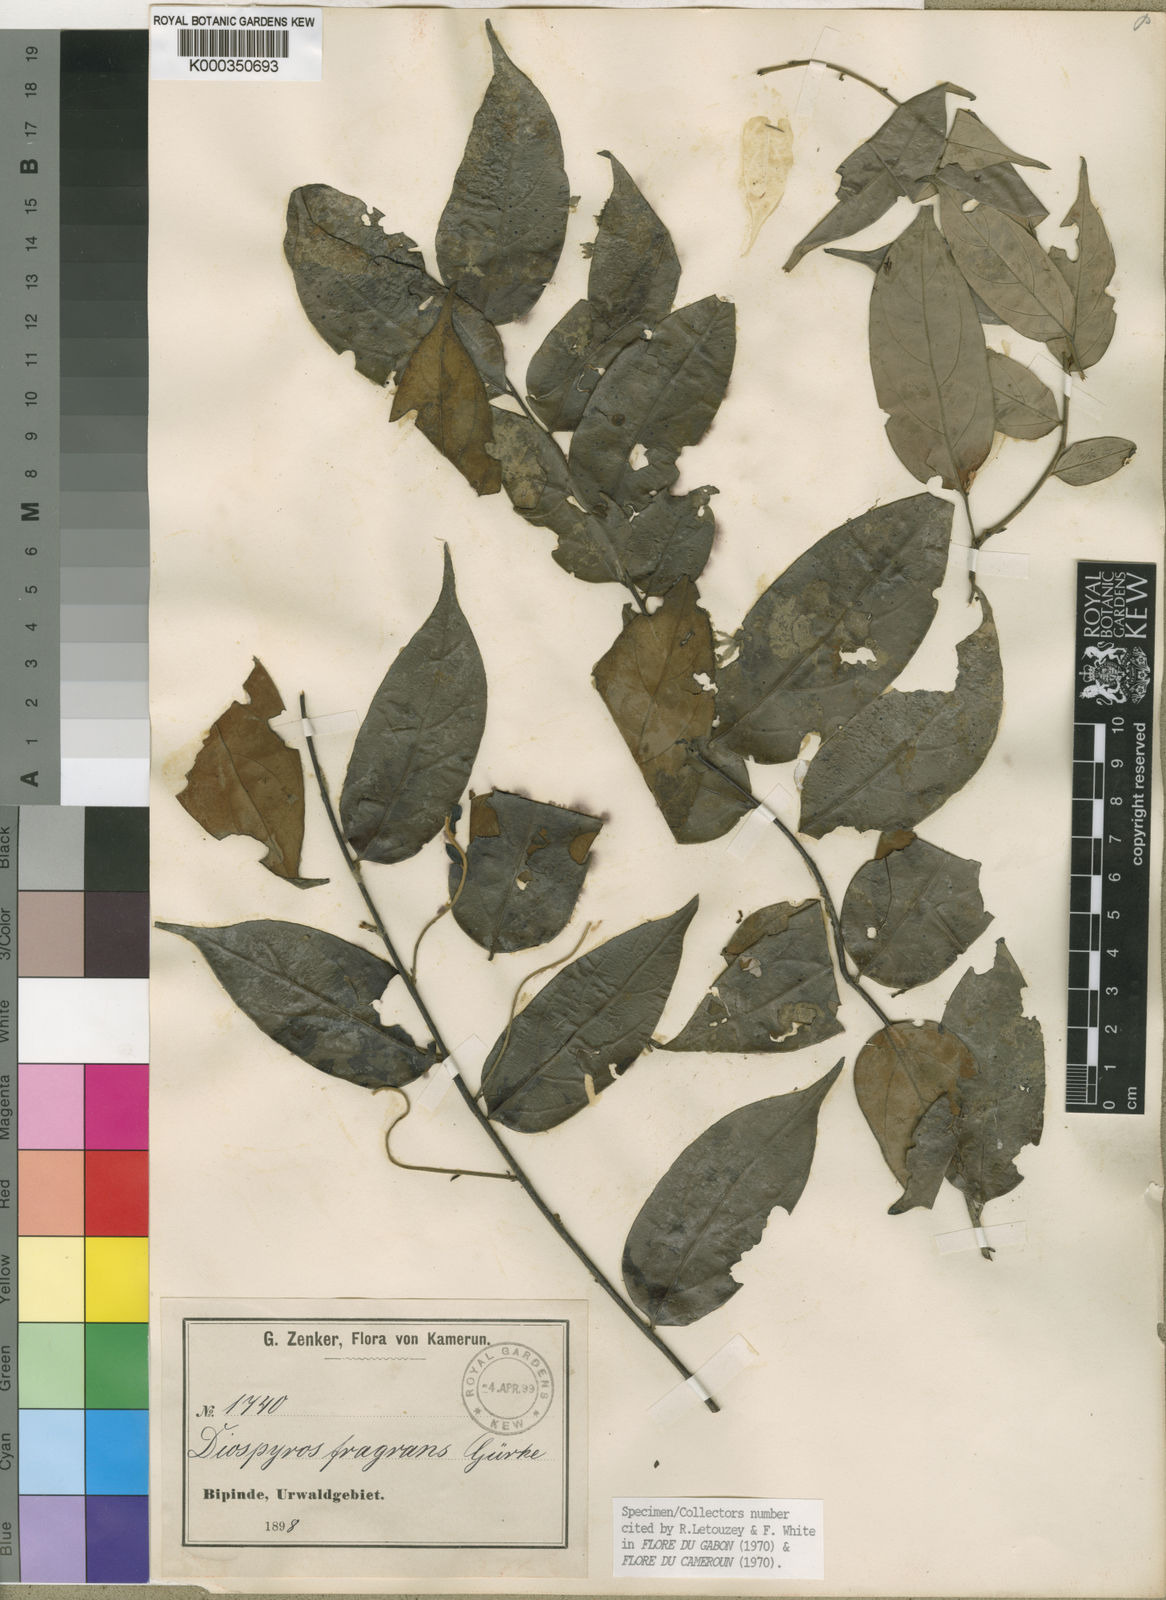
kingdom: Plantae
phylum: Tracheophyta
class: Magnoliopsida
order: Ericales
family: Ebenaceae
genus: Diospyros
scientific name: Diospyros
